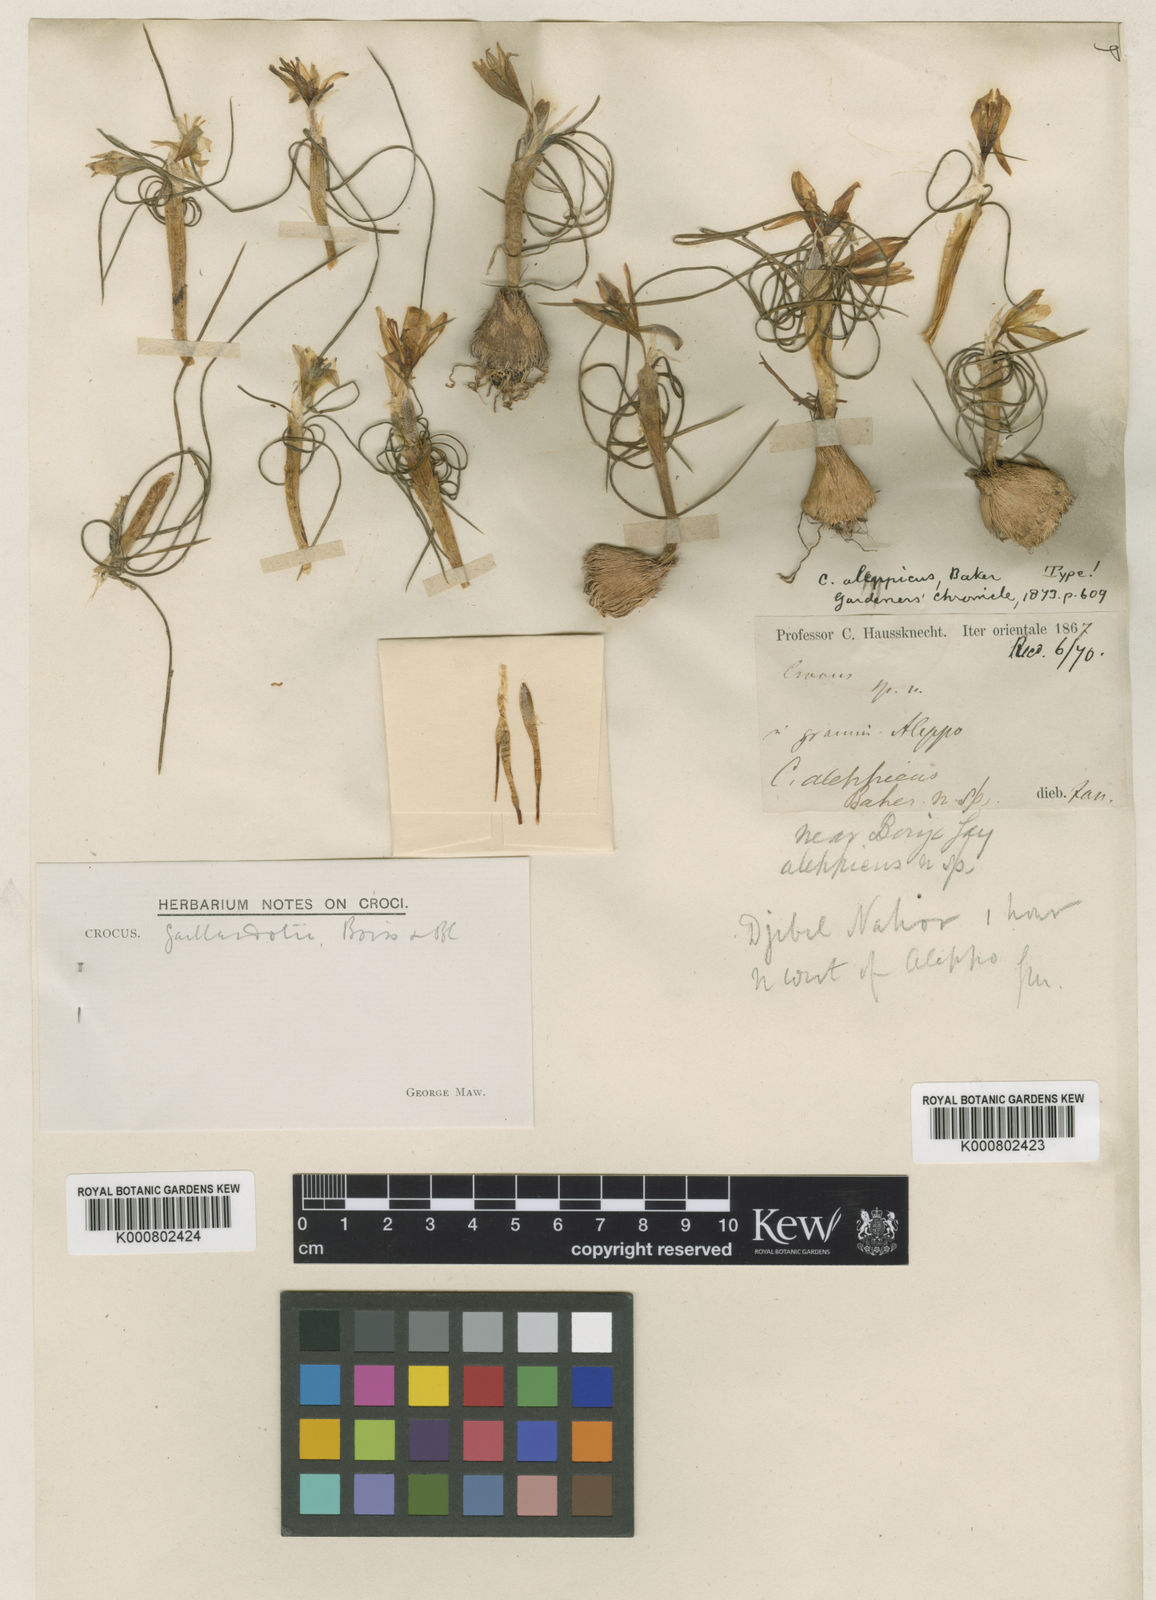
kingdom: Plantae
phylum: Tracheophyta
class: Liliopsida
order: Asparagales
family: Iridaceae
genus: Crocus
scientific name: Crocus aleppicus
